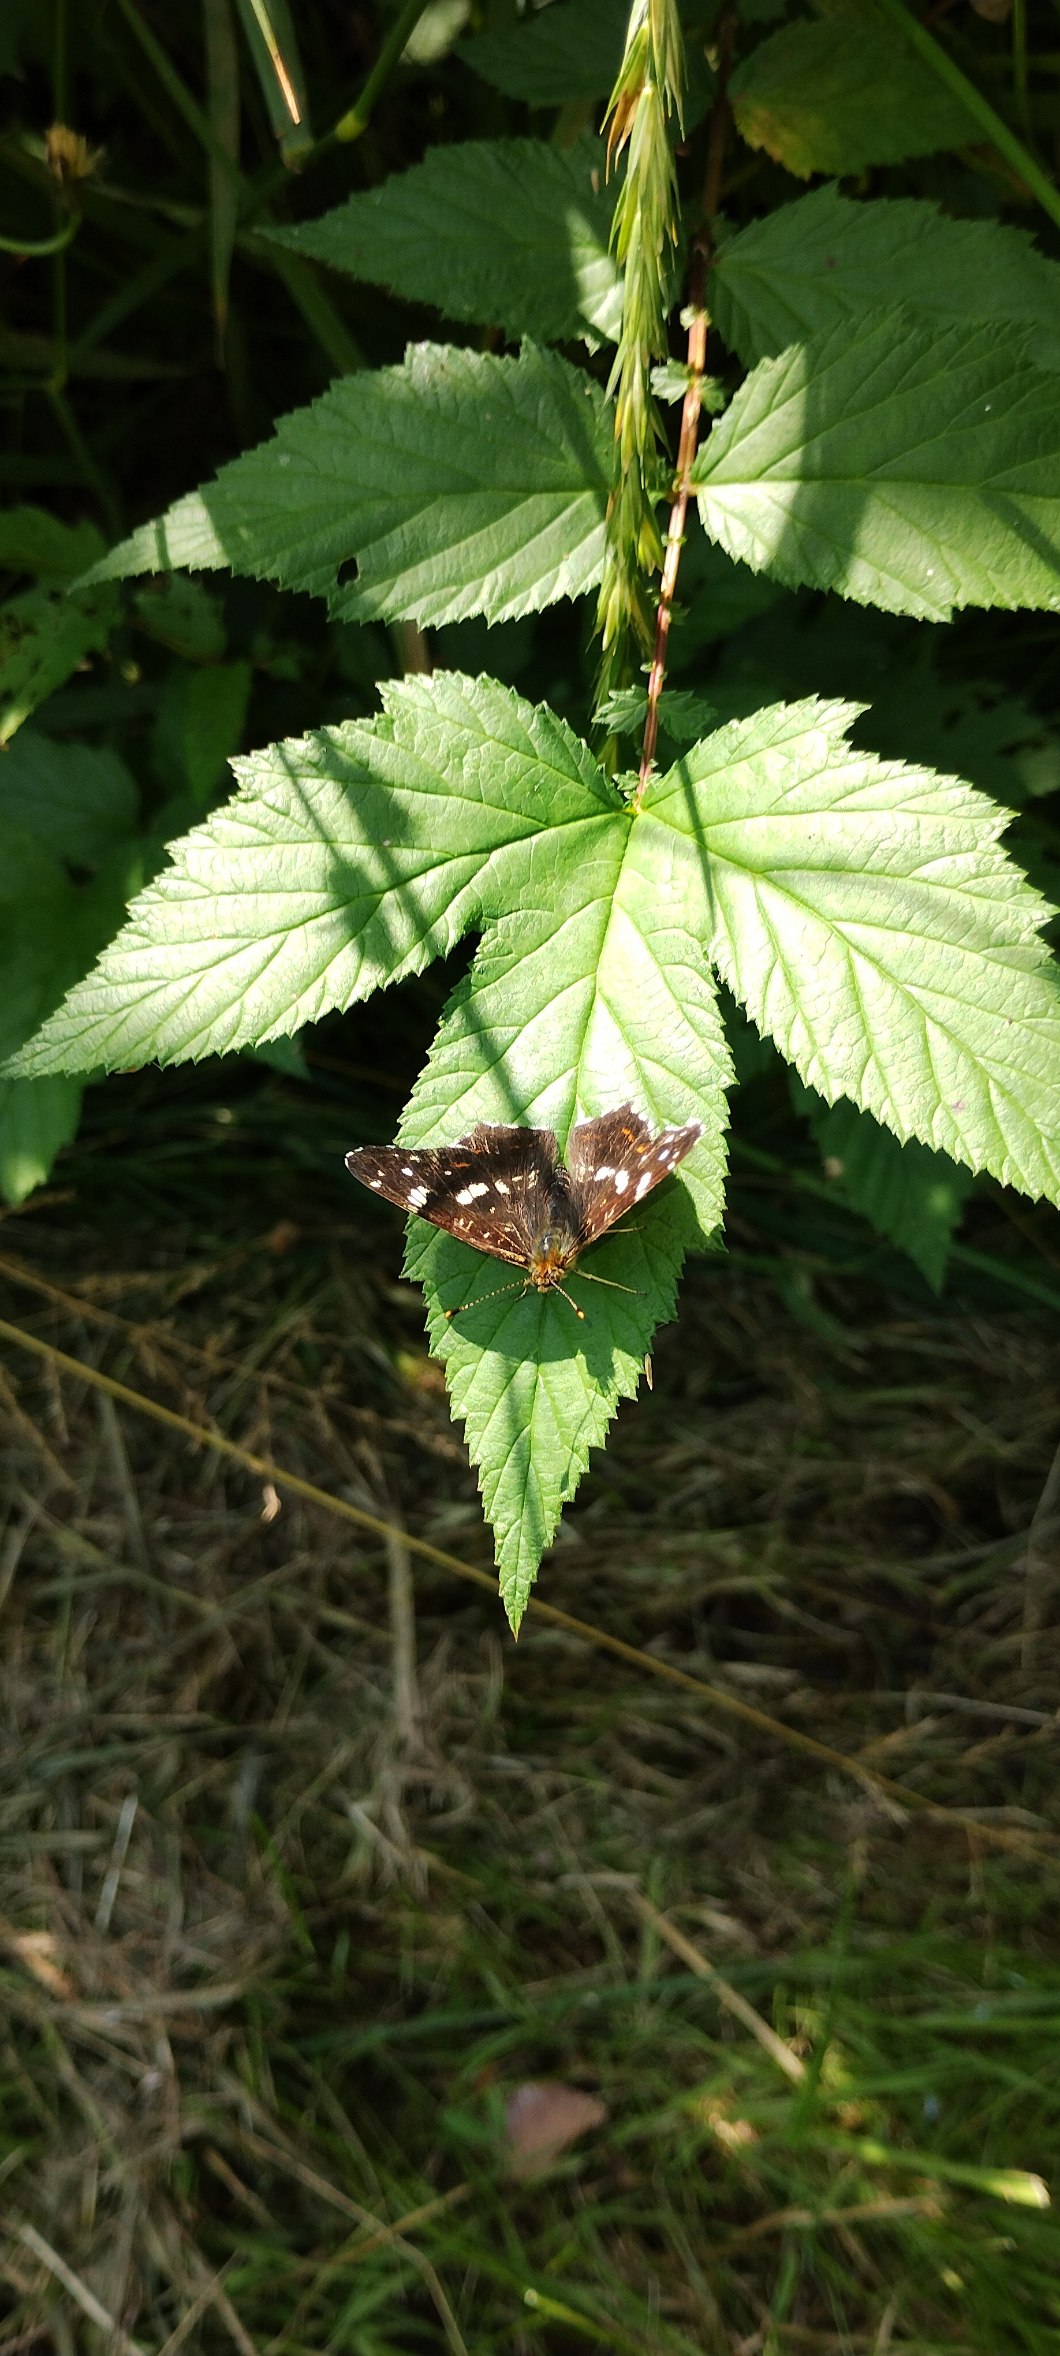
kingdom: Animalia
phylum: Arthropoda
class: Insecta
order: Lepidoptera
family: Nymphalidae
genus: Araschnia
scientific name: Araschnia levana
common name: Nældesommerfugl
